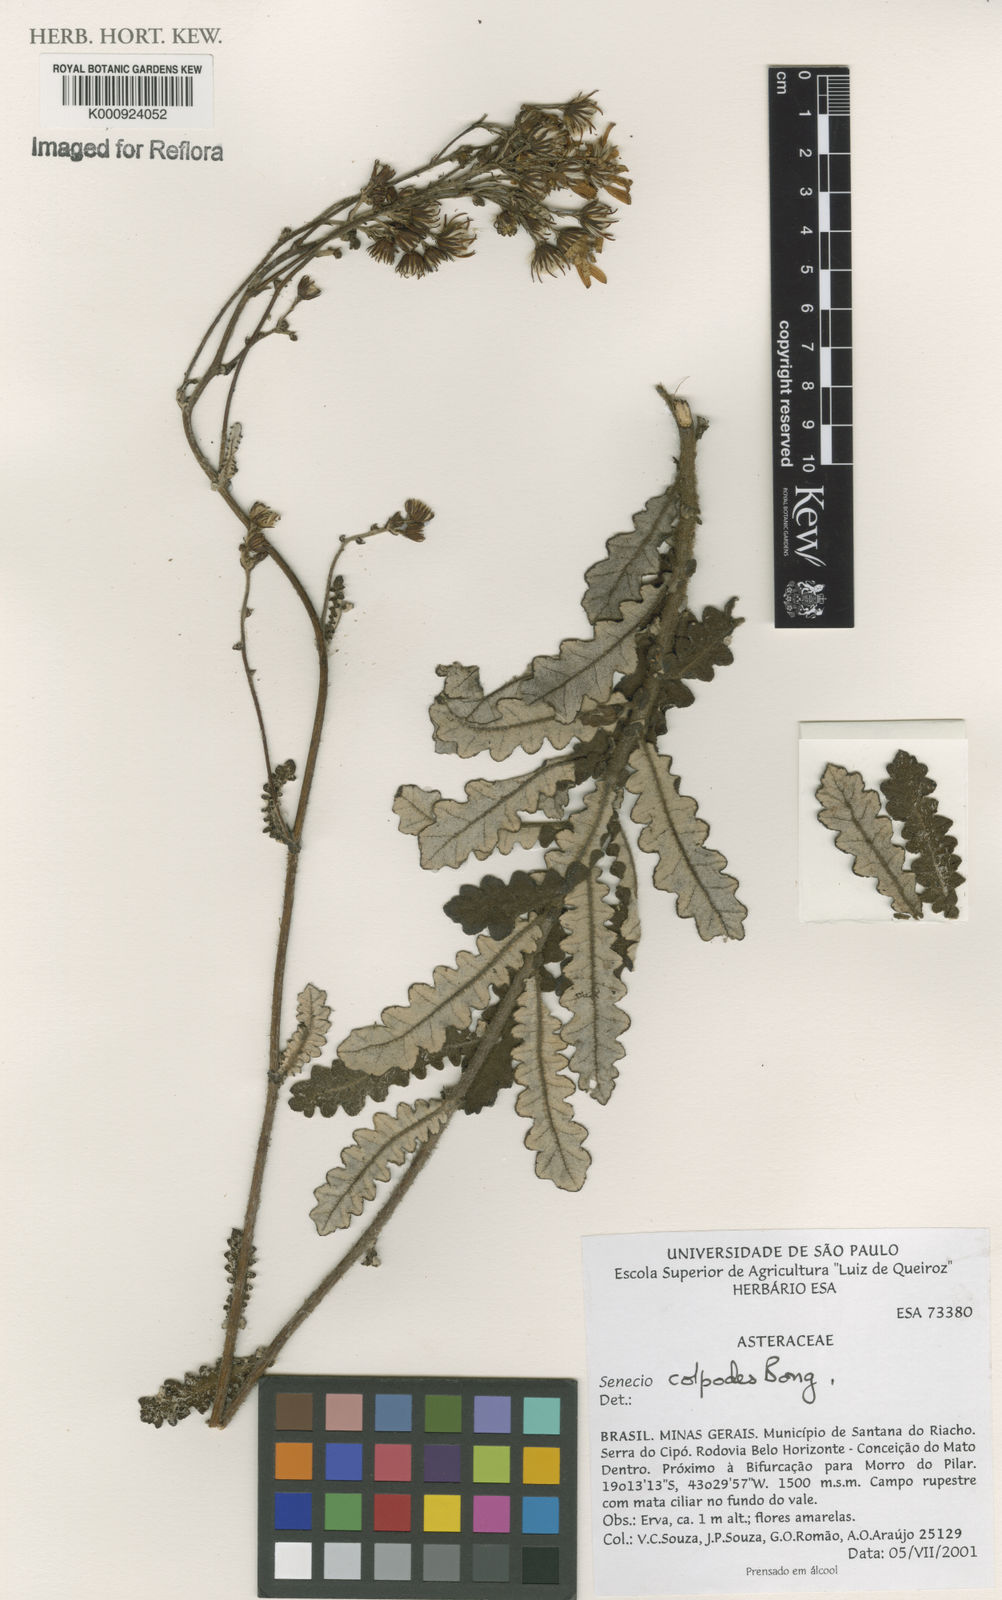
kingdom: Plantae
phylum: Tracheophyta
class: Magnoliopsida
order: Asterales
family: Asteraceae
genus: Senecio
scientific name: Senecio colpodes
